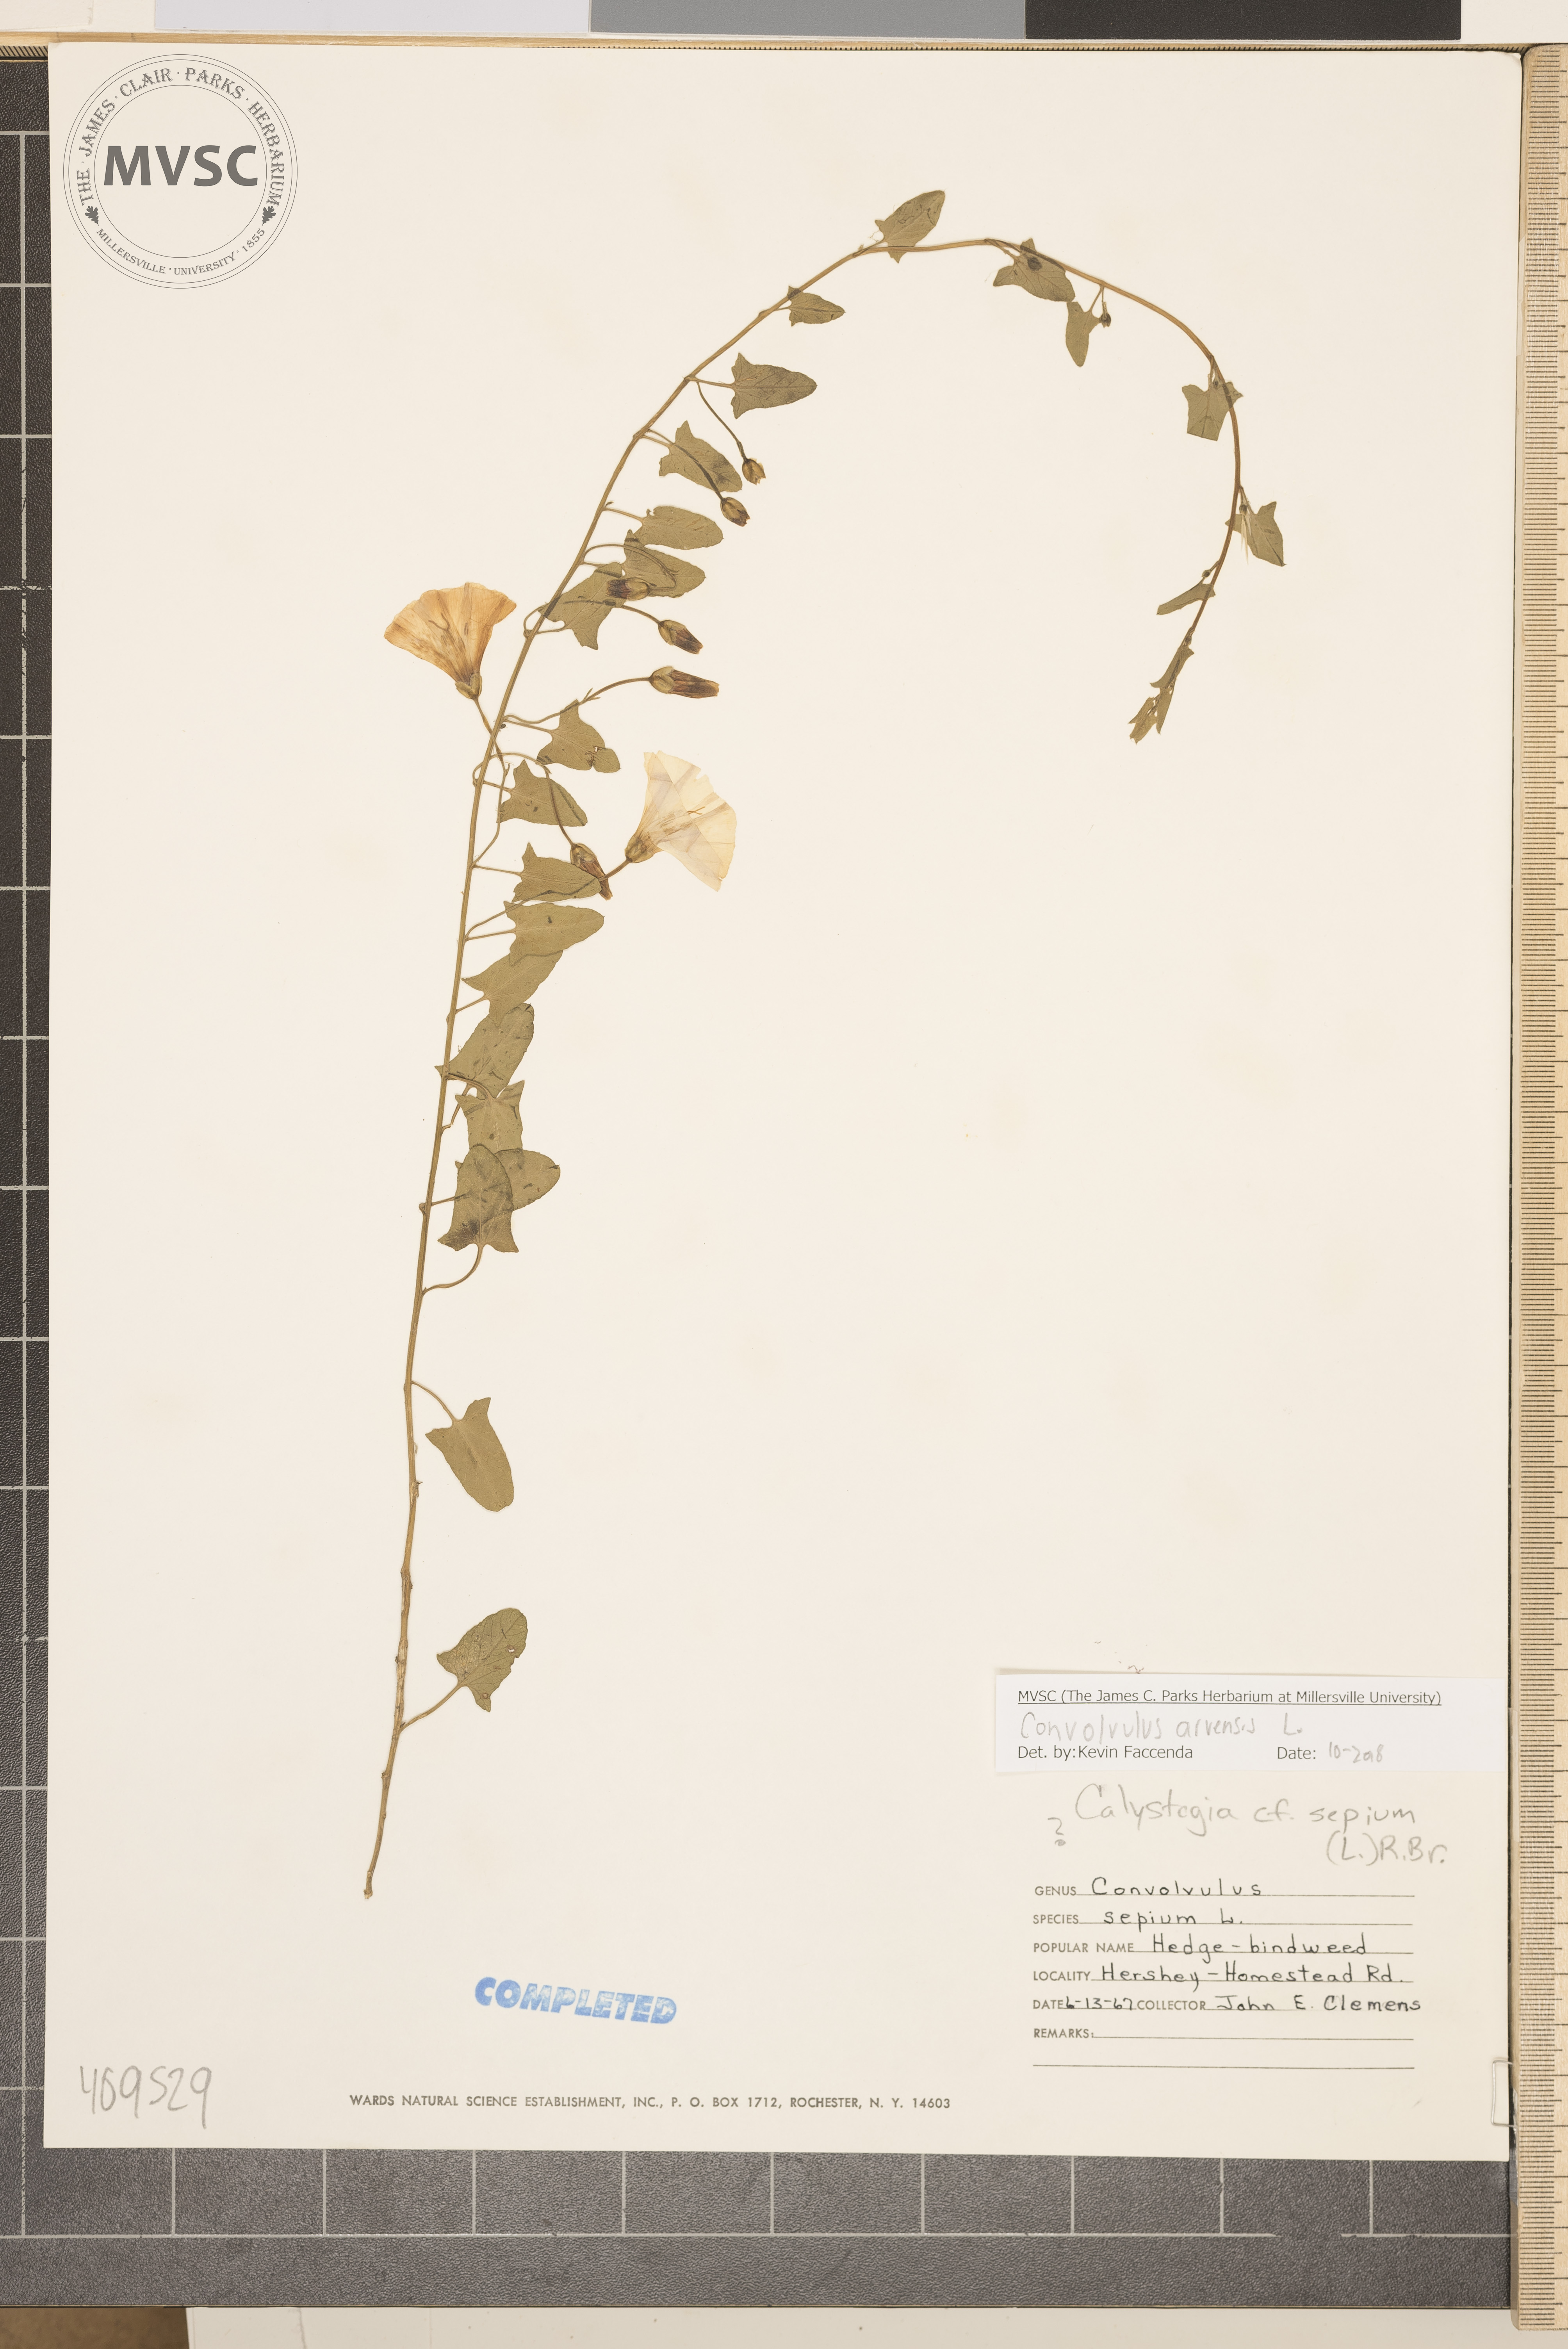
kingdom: Plantae
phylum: Tracheophyta
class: Magnoliopsida
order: Solanales
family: Convolvulaceae
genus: Convolvulus
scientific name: Convolvulus arvensis
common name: Field bindweed
